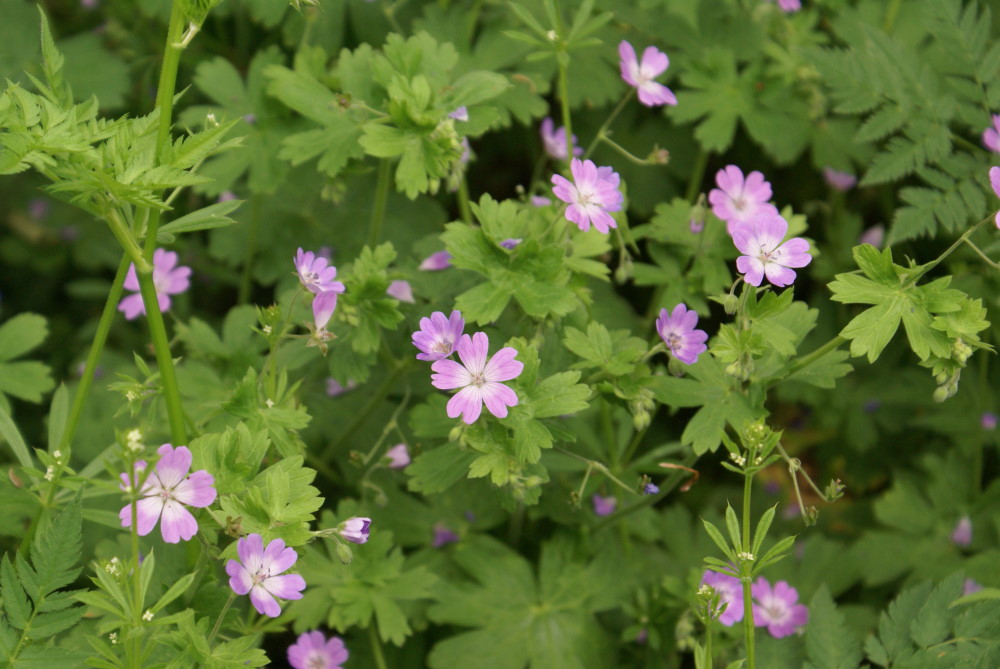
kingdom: Plantae
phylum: Tracheophyta
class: Magnoliopsida
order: Geraniales
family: Geraniaceae
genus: Geranium
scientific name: Geranium pyrenaicum
